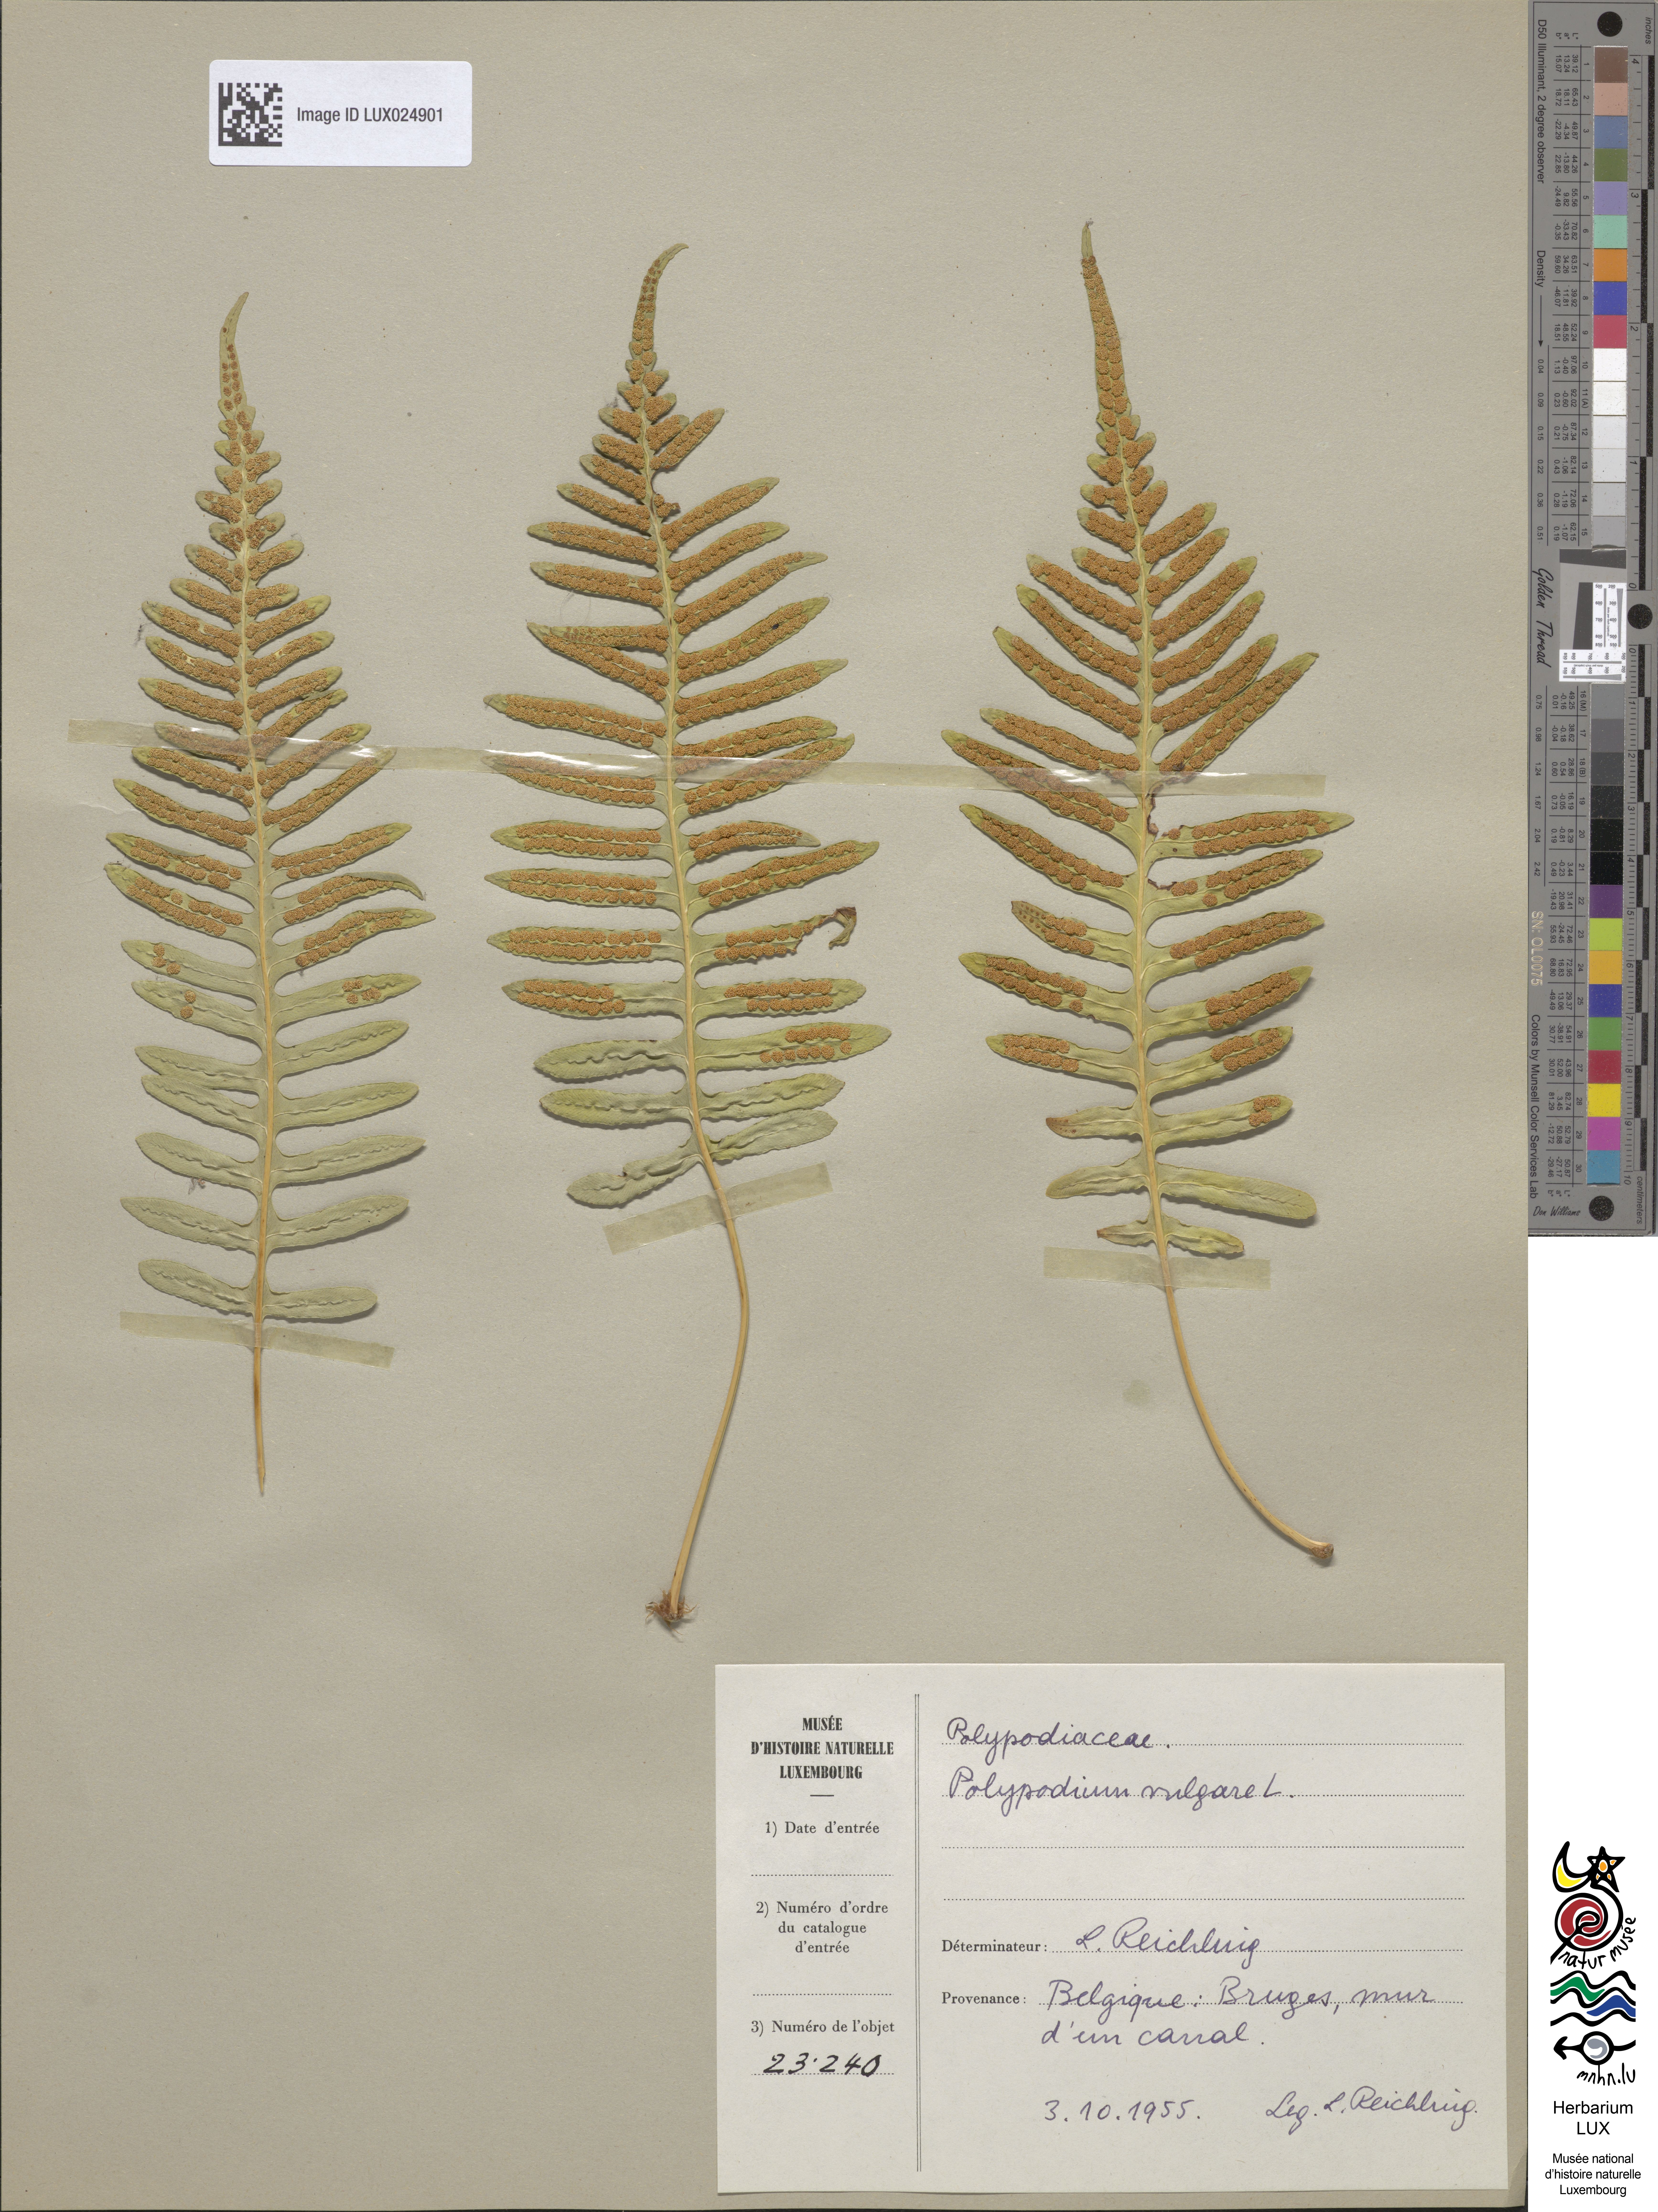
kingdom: Plantae
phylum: Tracheophyta
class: Polypodiopsida
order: Polypodiales
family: Polypodiaceae
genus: Polypodium
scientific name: Polypodium vulgare
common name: Common polypody
